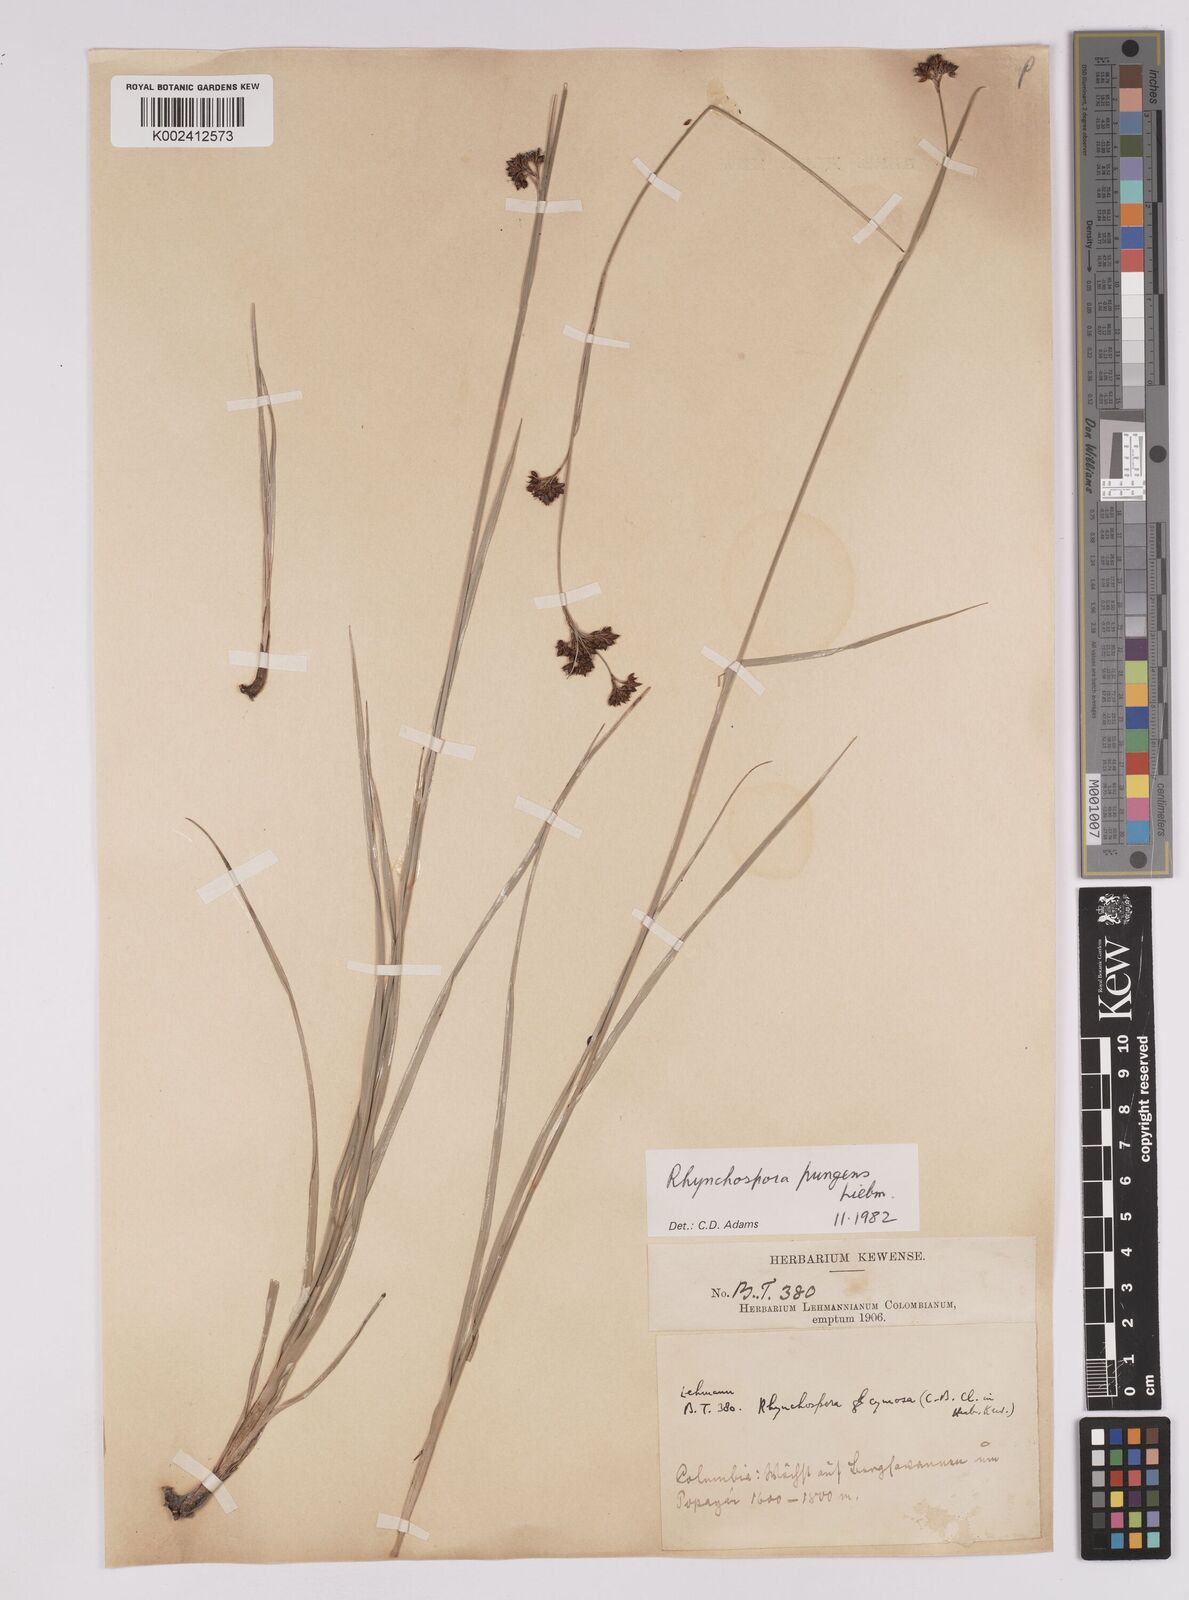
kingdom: Plantae
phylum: Tracheophyta
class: Liliopsida
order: Poales
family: Cyperaceae
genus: Rhynchospora
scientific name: Rhynchospora rugosa
